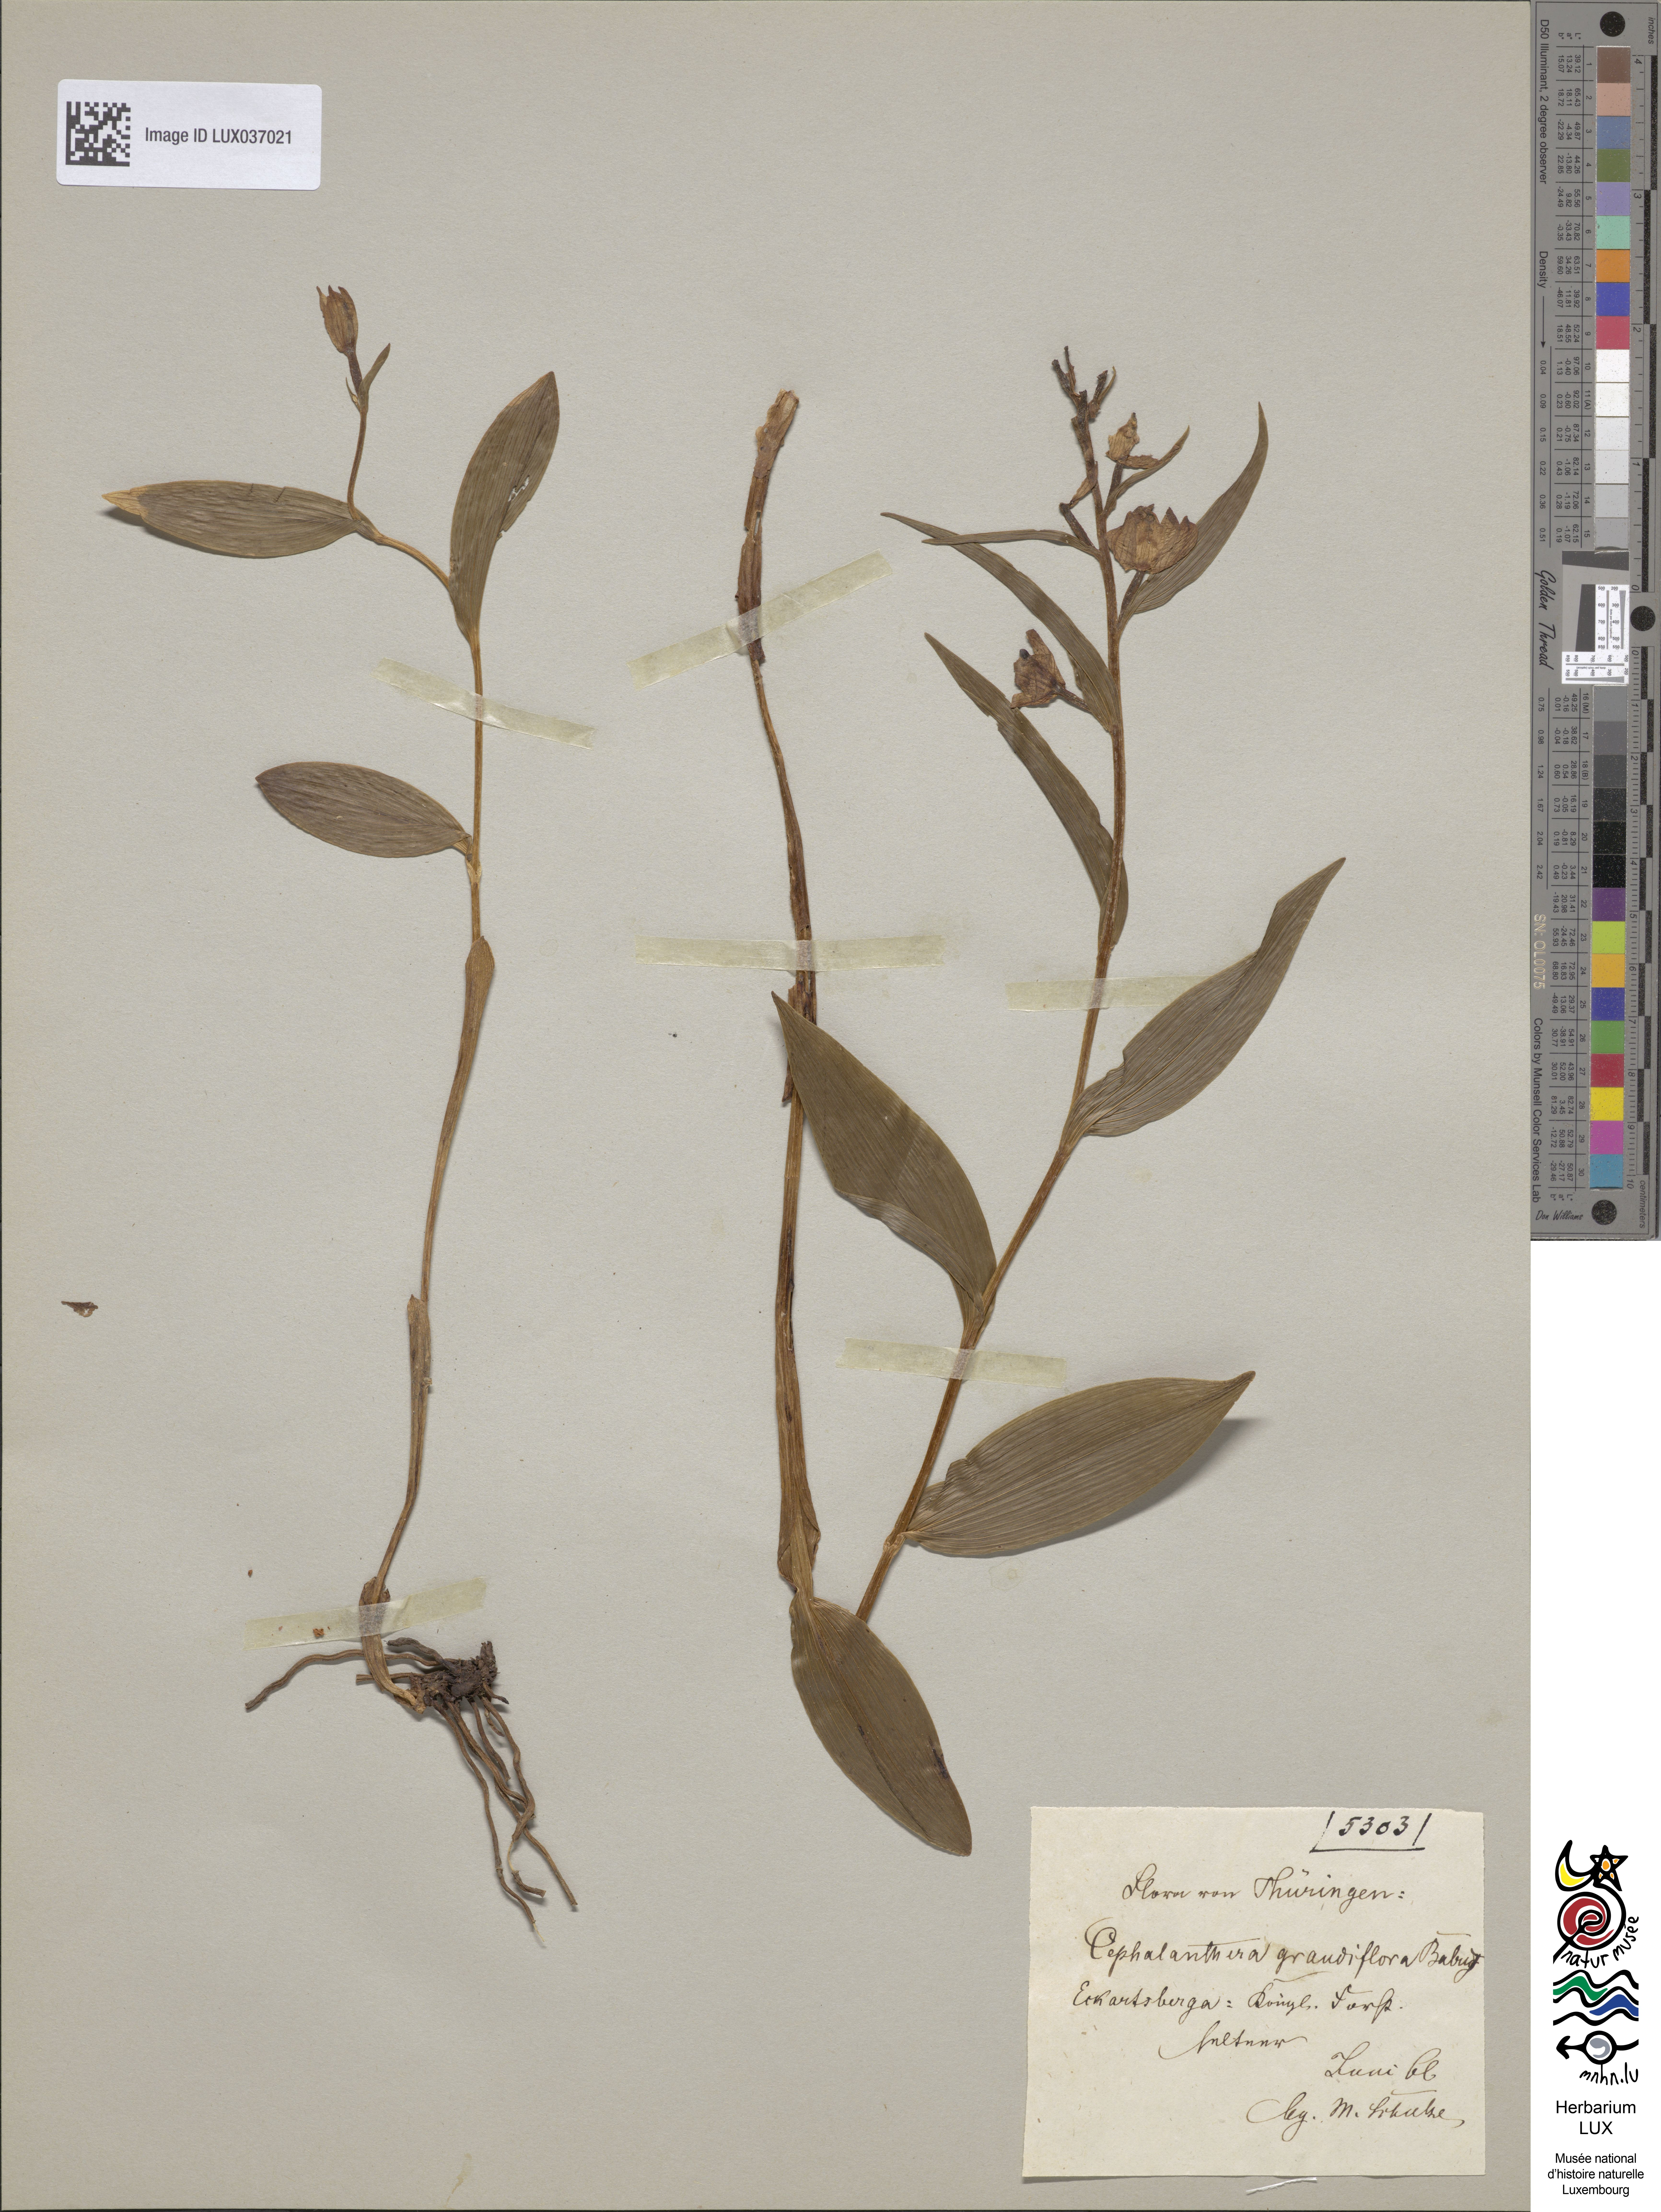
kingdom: Plantae
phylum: Tracheophyta
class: Liliopsida
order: Asparagales
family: Orchidaceae
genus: Cephalanthera
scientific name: Cephalanthera damasonium
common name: White helleborine
